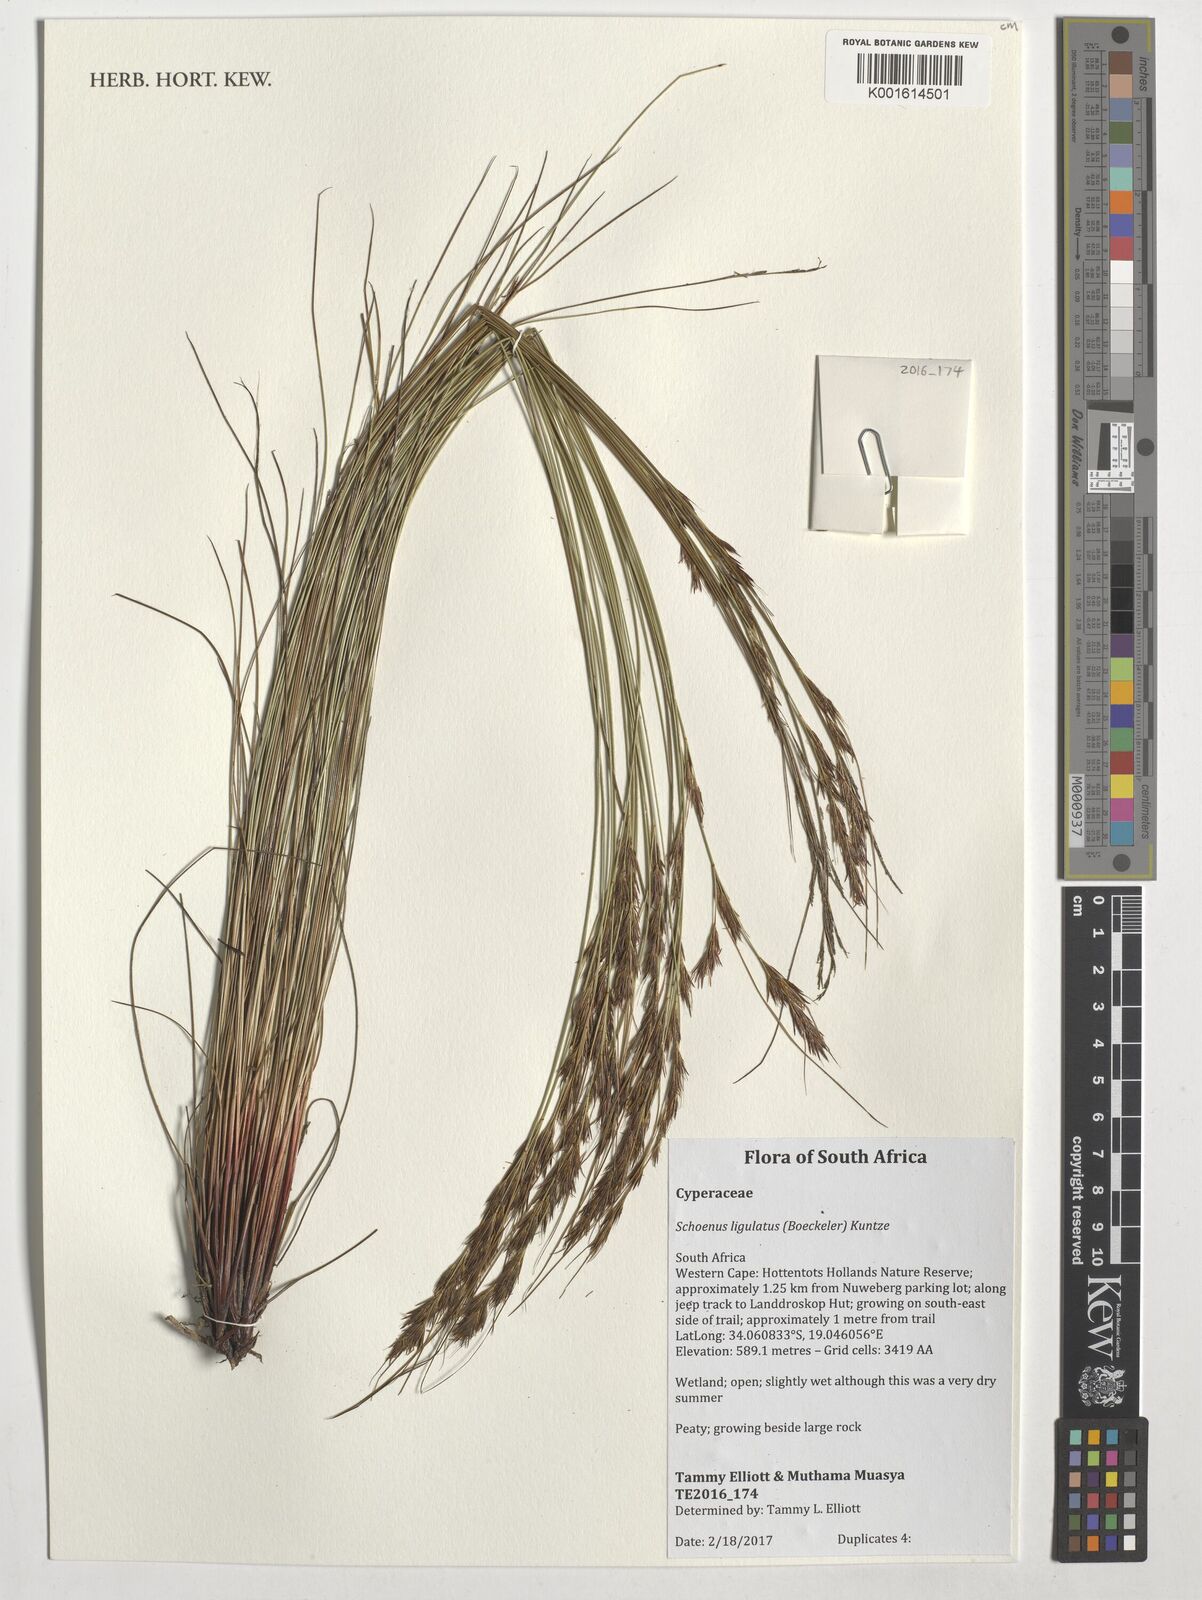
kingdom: Plantae
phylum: Tracheophyta
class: Liliopsida
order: Poales
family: Cyperaceae
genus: Schoenus
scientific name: Schoenus ligulatus
